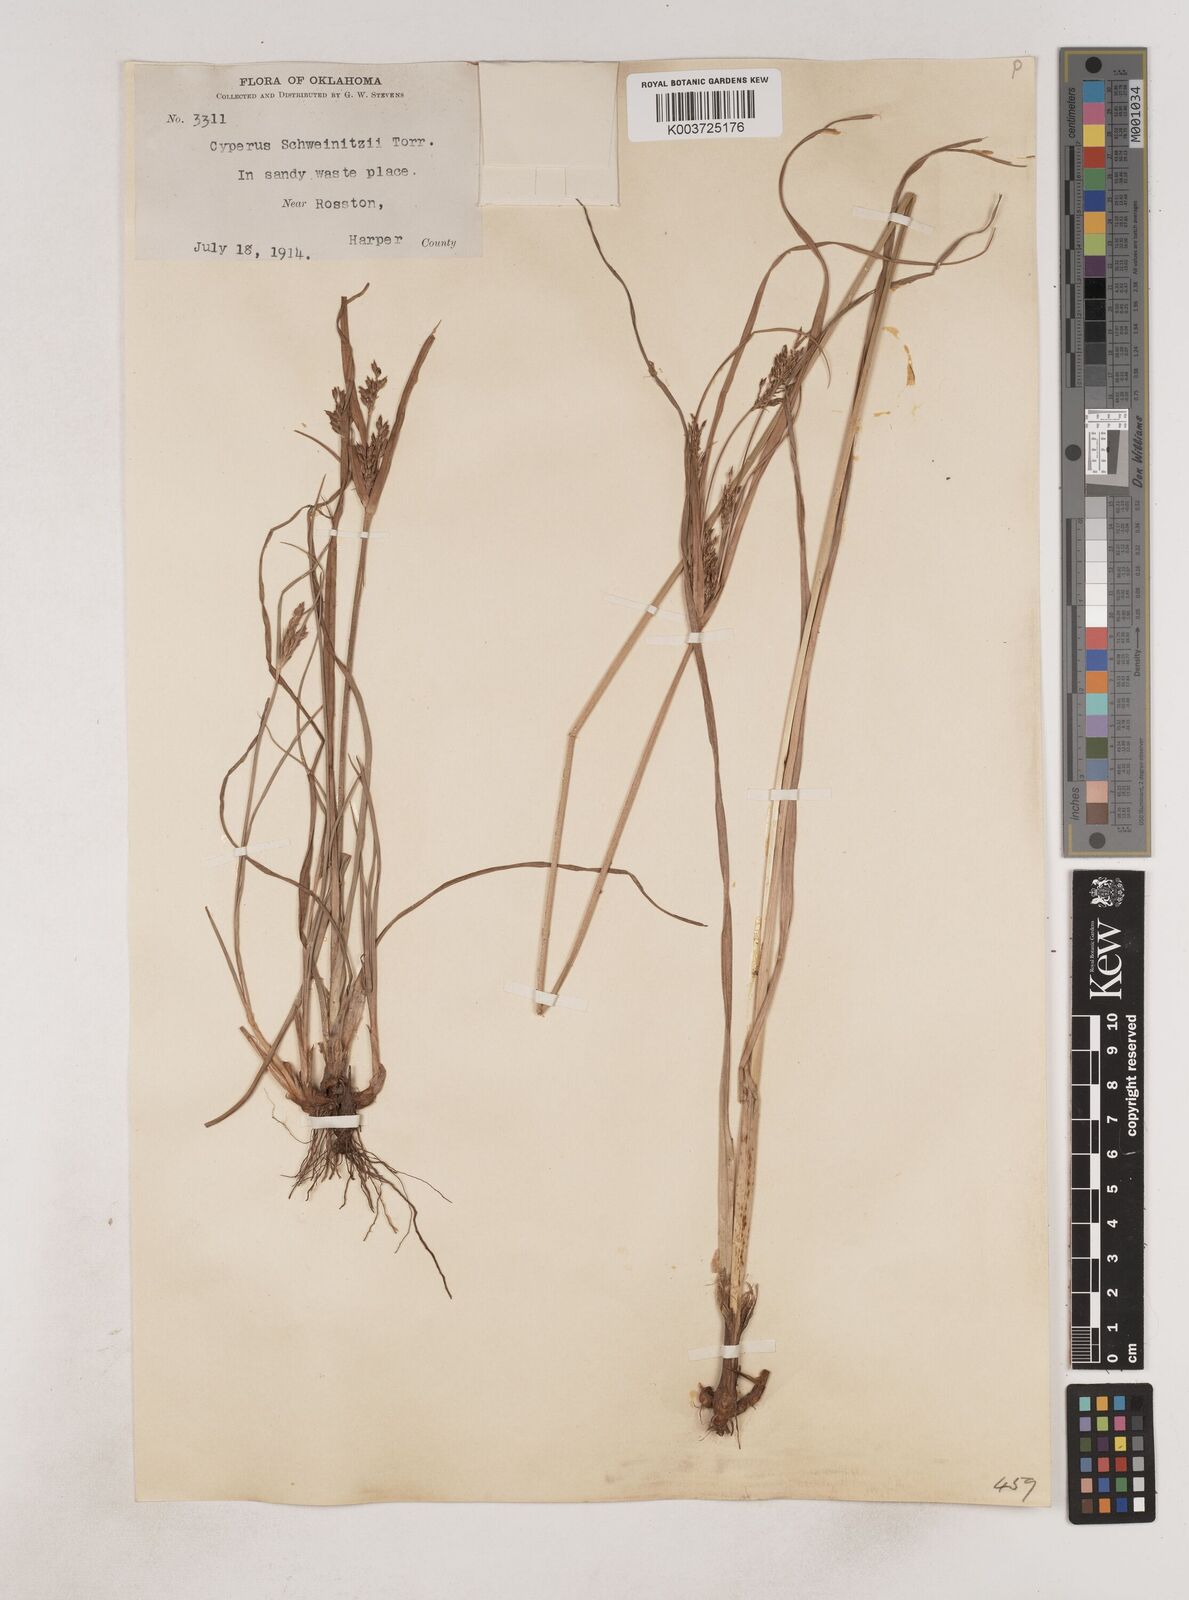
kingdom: Plantae
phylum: Tracheophyta
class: Liliopsida
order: Poales
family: Cyperaceae
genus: Cyperus
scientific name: Cyperus schweinitzii
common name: Schweinitz's cyperus
